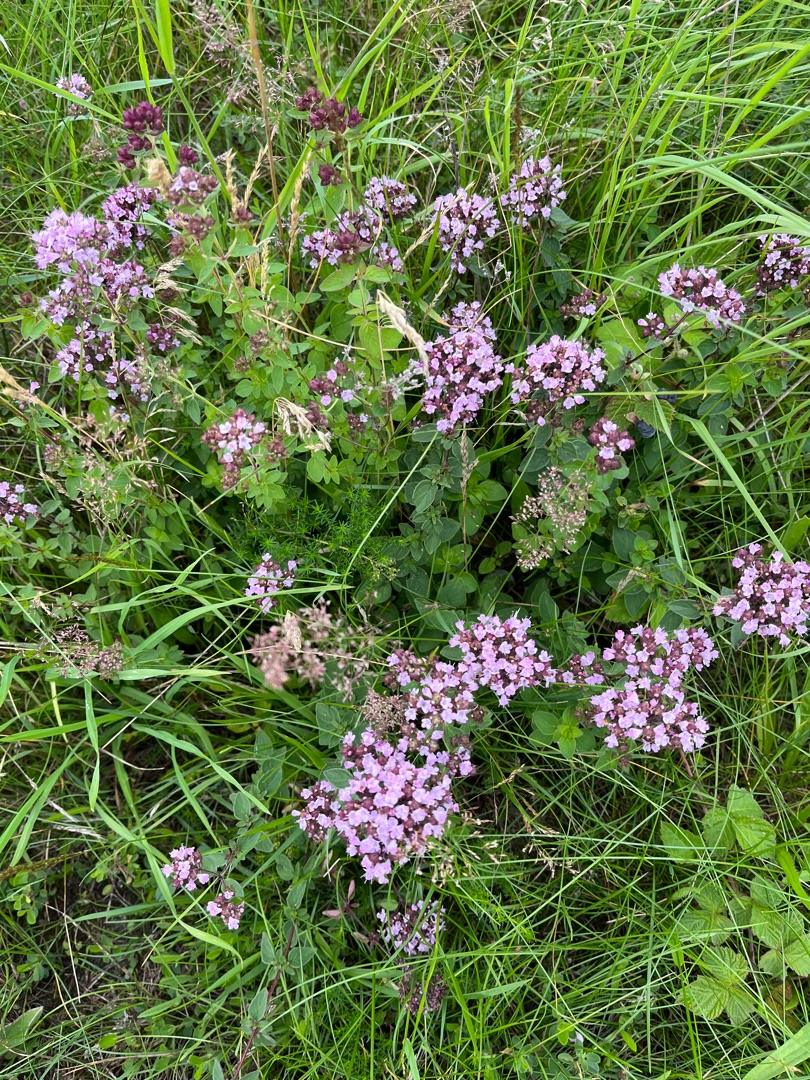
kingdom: Plantae
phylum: Tracheophyta
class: Magnoliopsida
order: Lamiales
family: Lamiaceae
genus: Origanum
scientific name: Origanum vulgare
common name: Merian
